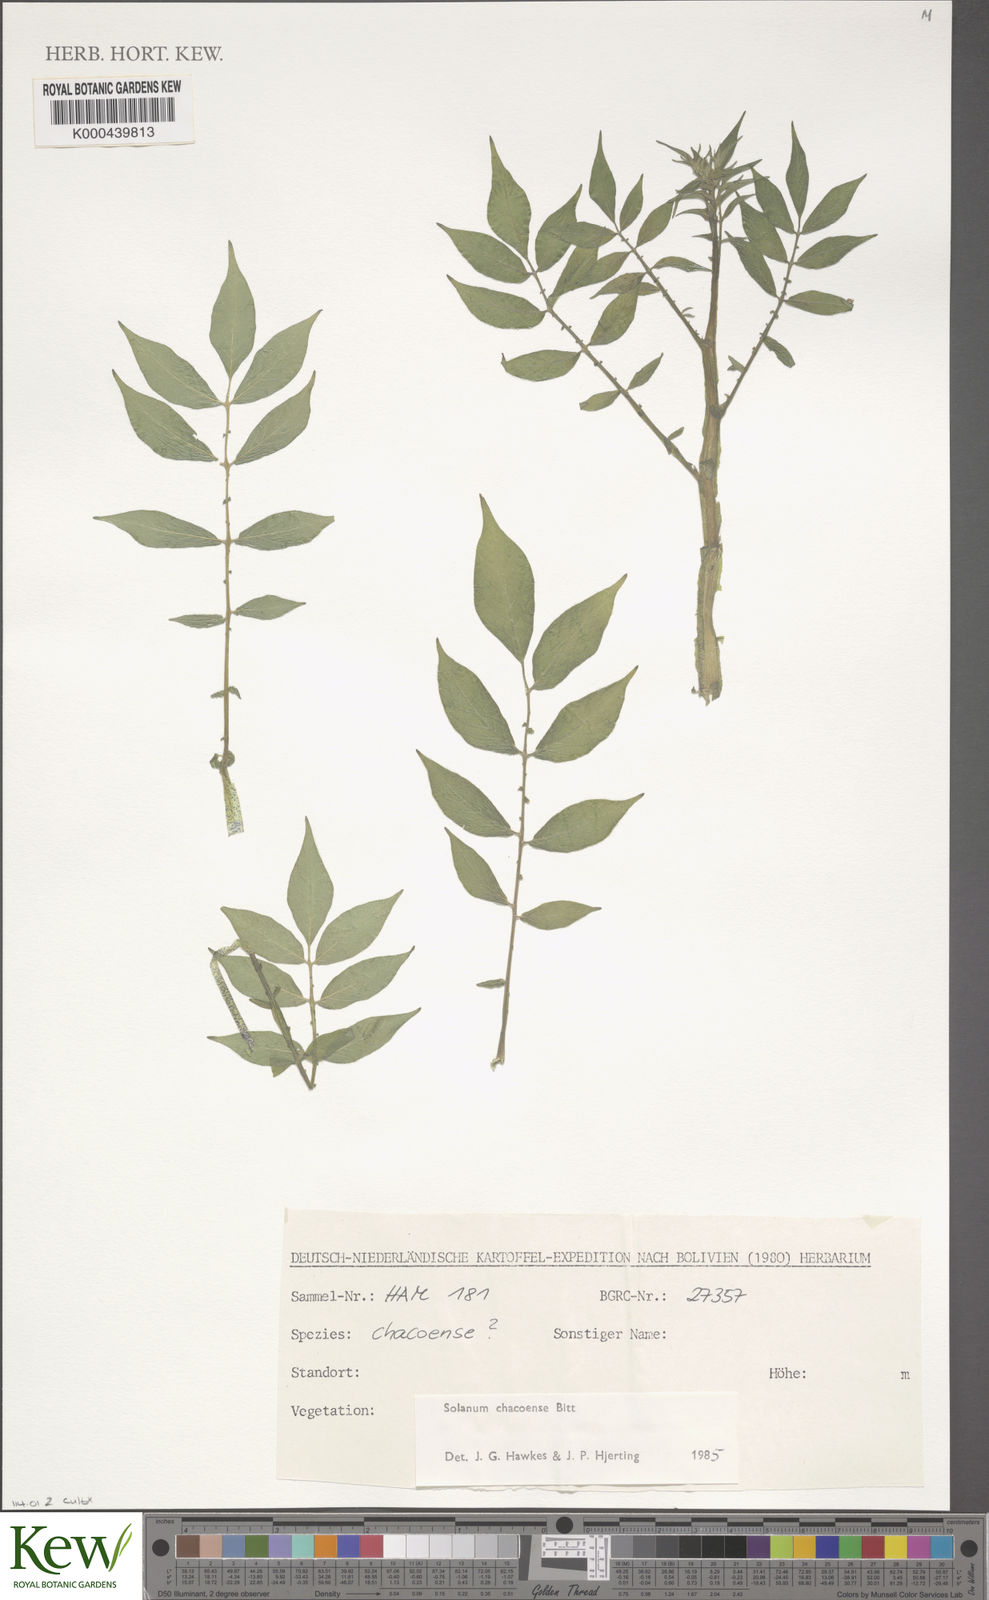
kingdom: Plantae
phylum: Tracheophyta
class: Magnoliopsida
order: Solanales
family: Solanaceae
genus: Solanum
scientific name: Solanum chacoense
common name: Chaco potato
